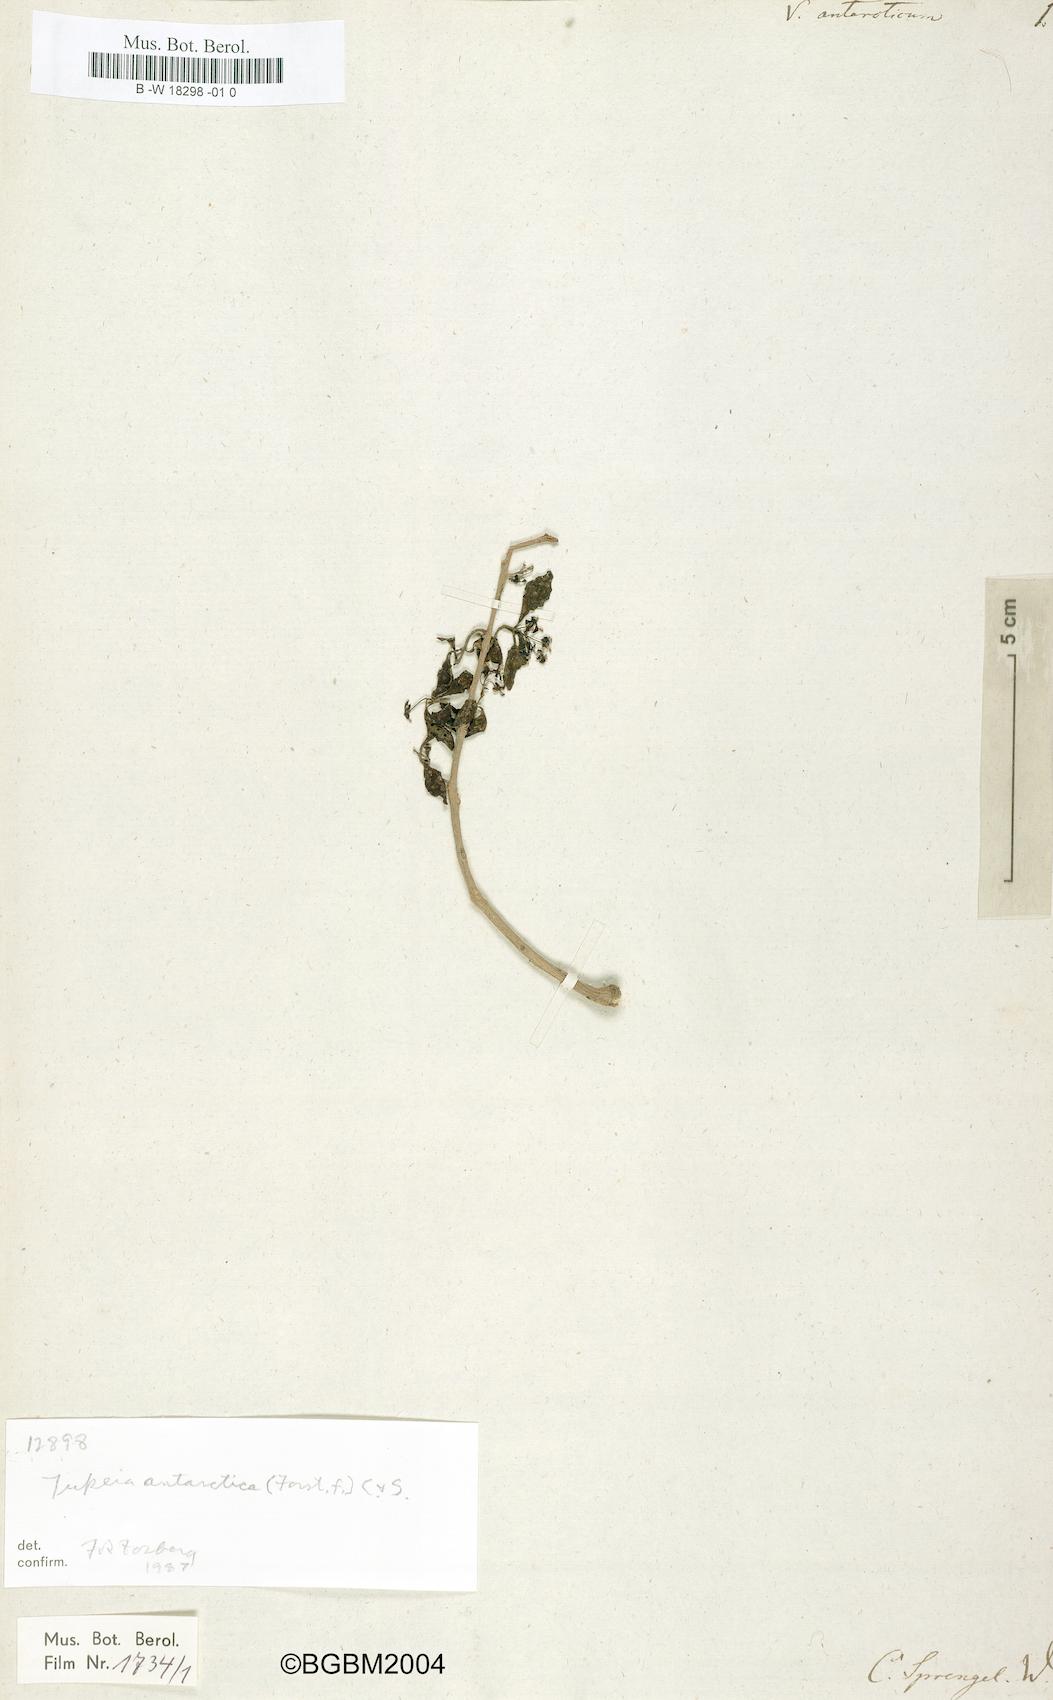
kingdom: Plantae
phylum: Tracheophyta
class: Magnoliopsida
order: Santalales
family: Loranthaceae
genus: Tupeia
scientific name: Tupeia antarctica
